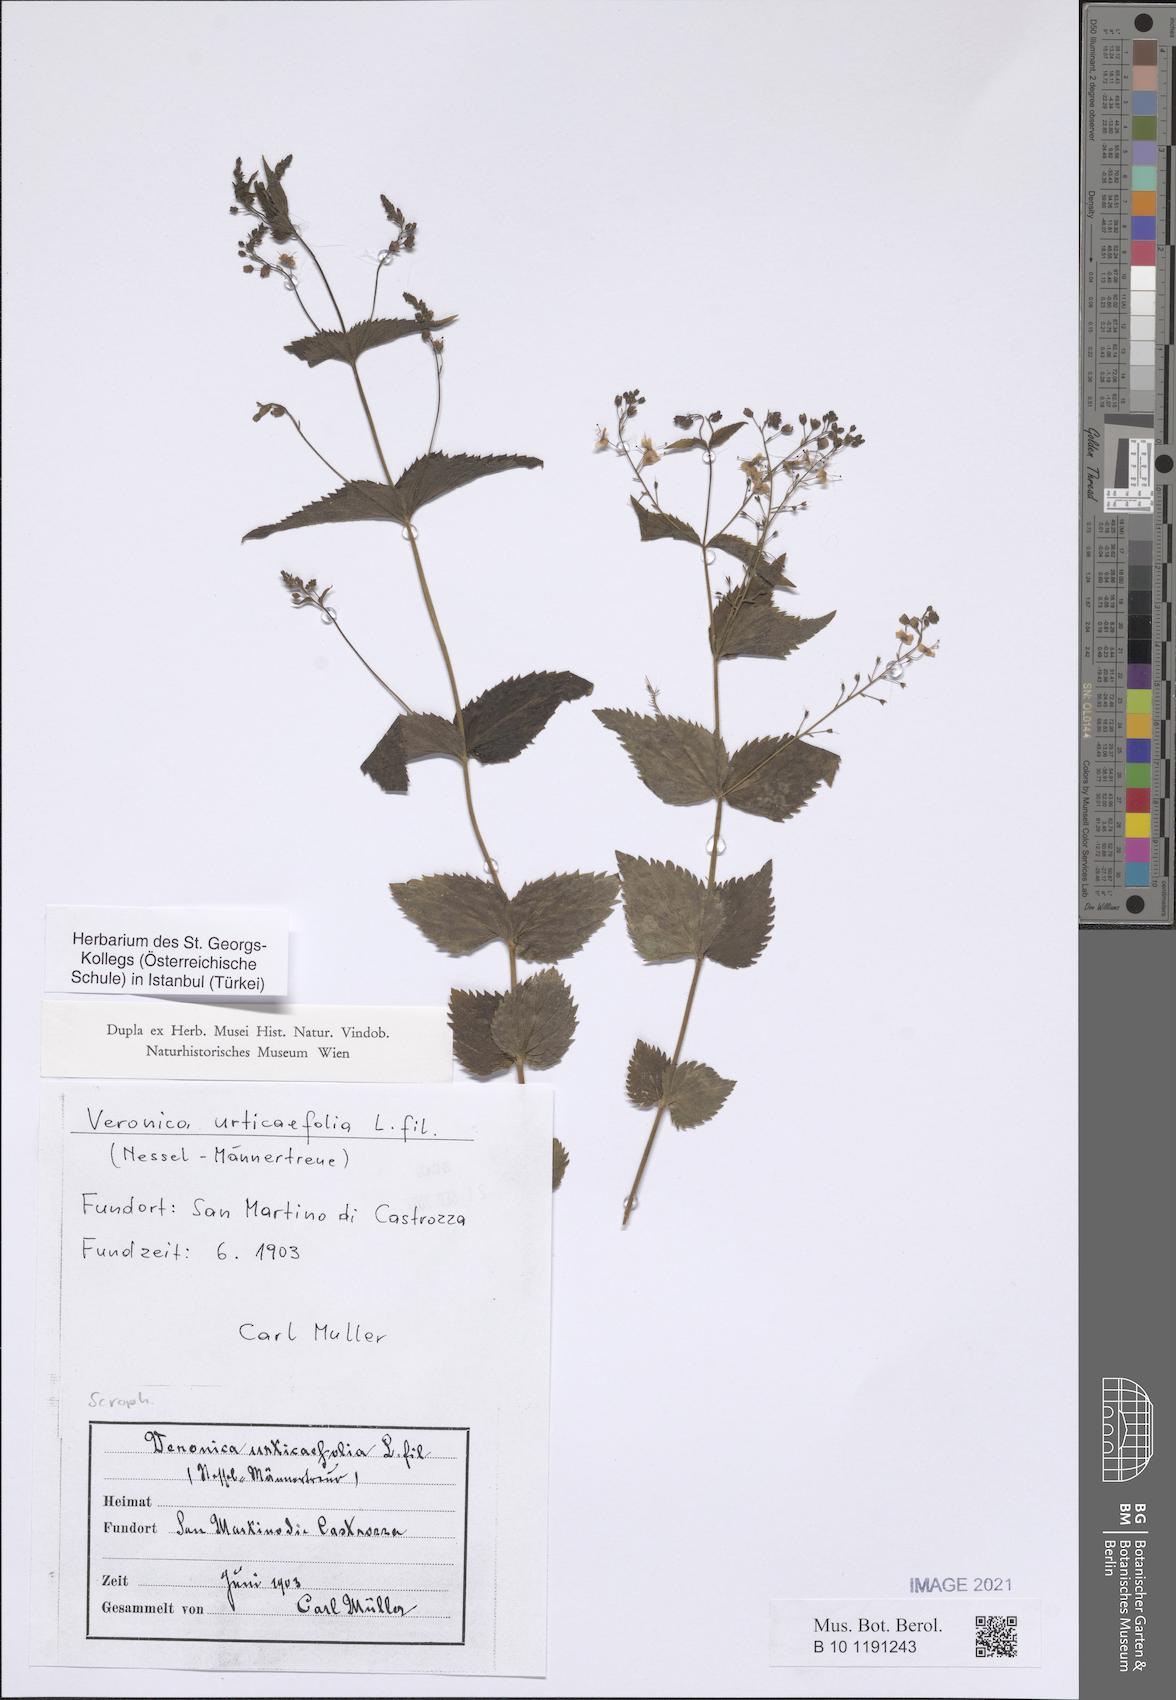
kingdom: Plantae
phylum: Tracheophyta
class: Magnoliopsida
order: Lamiales
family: Plantaginaceae
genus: Veronica
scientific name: Veronica urticifolia
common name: Nettle-leaf speedwell
